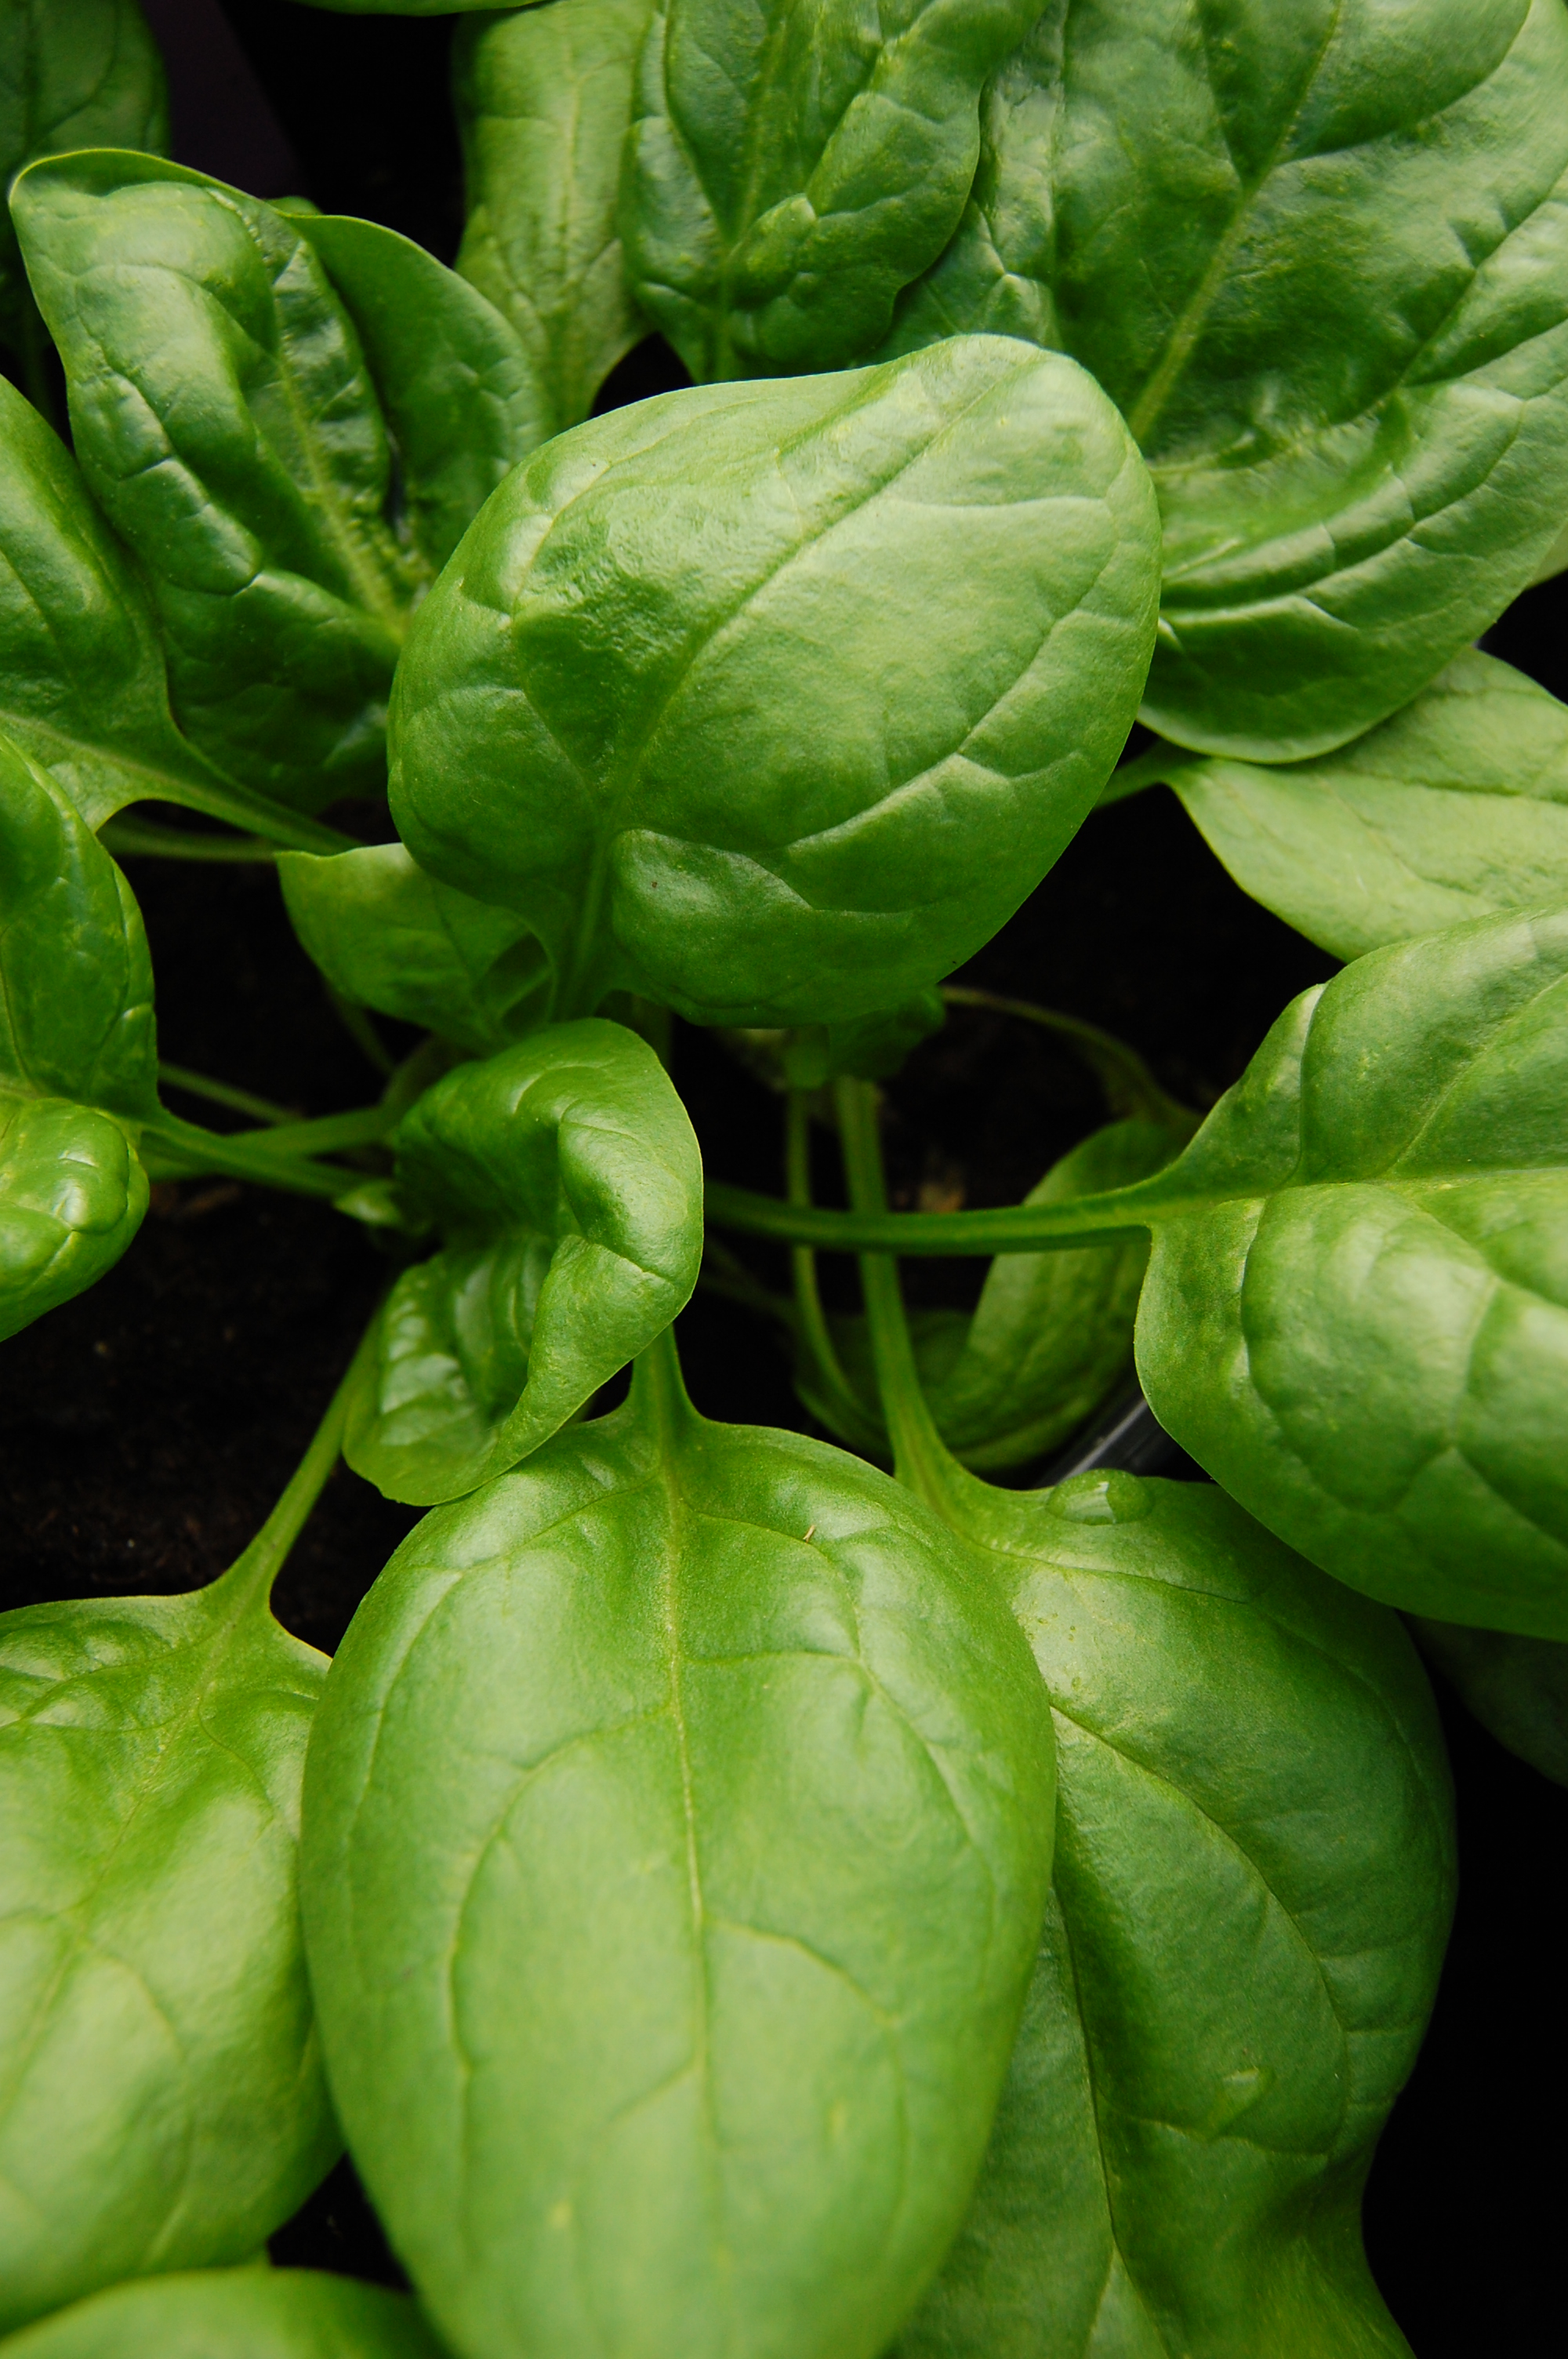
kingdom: Plantae
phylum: Tracheophyta
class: Magnoliopsida
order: Caryophyllales
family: Amaranthaceae
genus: Spinacia
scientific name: Spinacia oleracea
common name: Spinach
